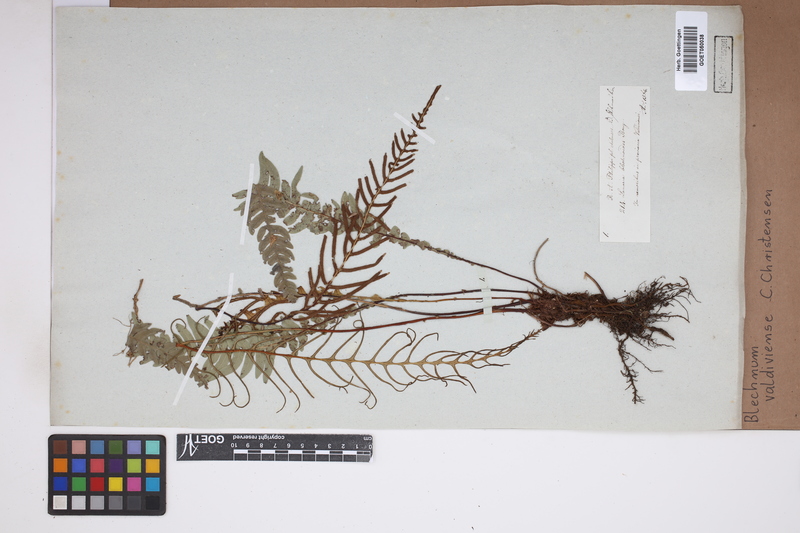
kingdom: Plantae
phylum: Tracheophyta
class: Polypodiopsida
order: Polypodiales
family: Blechnaceae
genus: Austroblechnum
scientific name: Austroblechnum leyboldtianum
